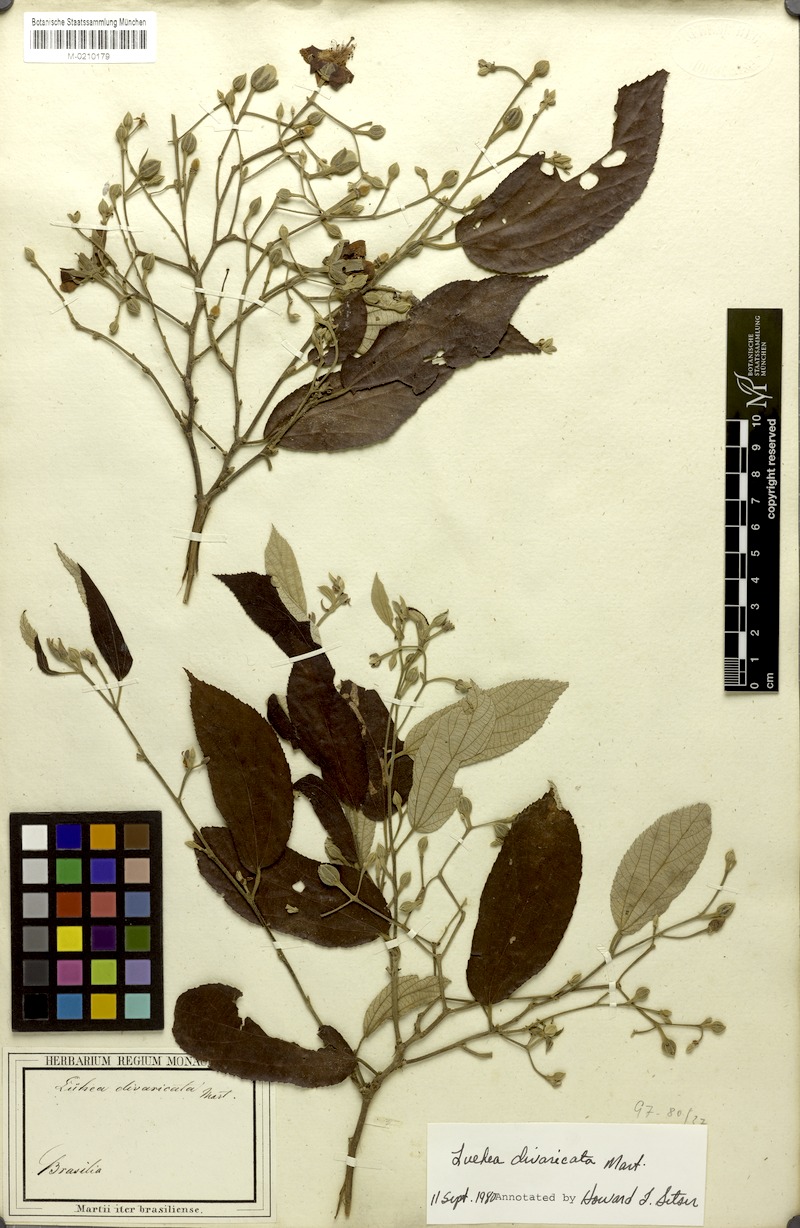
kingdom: Plantae
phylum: Tracheophyta
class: Magnoliopsida
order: Malvales
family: Malvaceae
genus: Luehea
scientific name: Luehea divaricata
